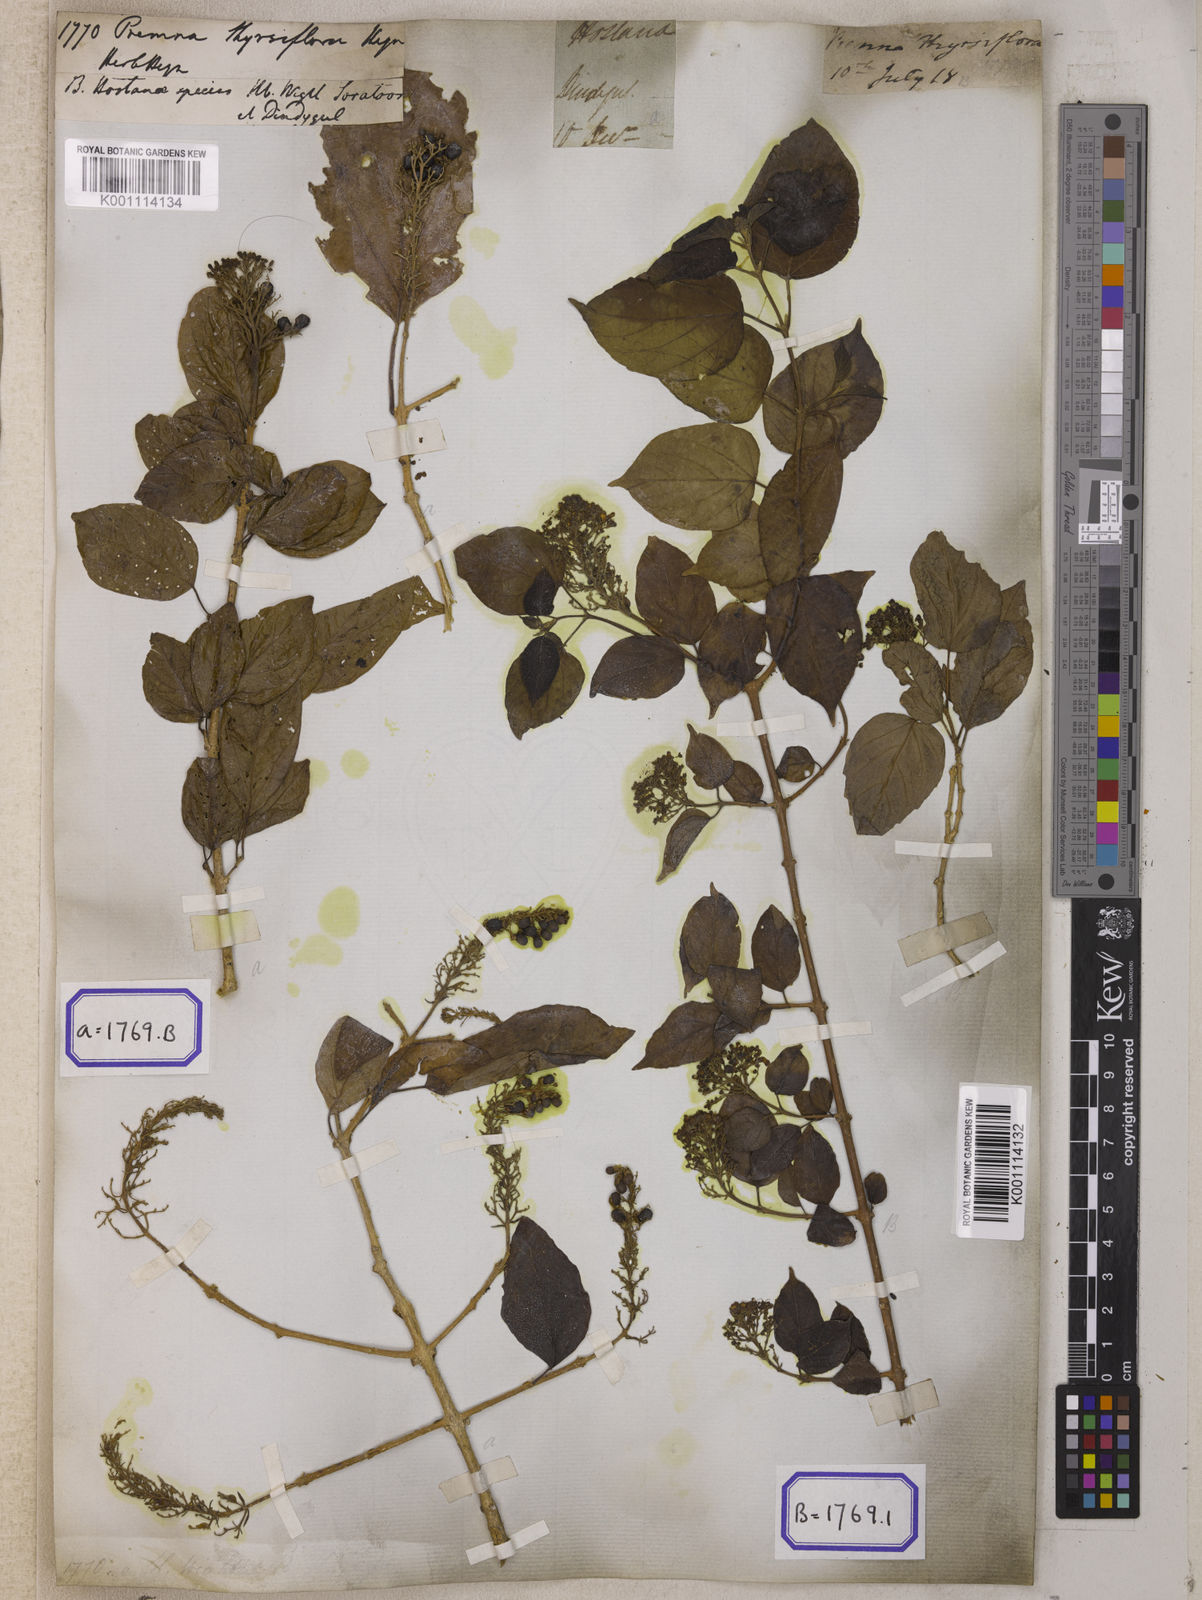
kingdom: Plantae
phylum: Tracheophyta
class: Magnoliopsida
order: Lamiales
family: Lamiaceae
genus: Premna
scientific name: Premna tomentosa
